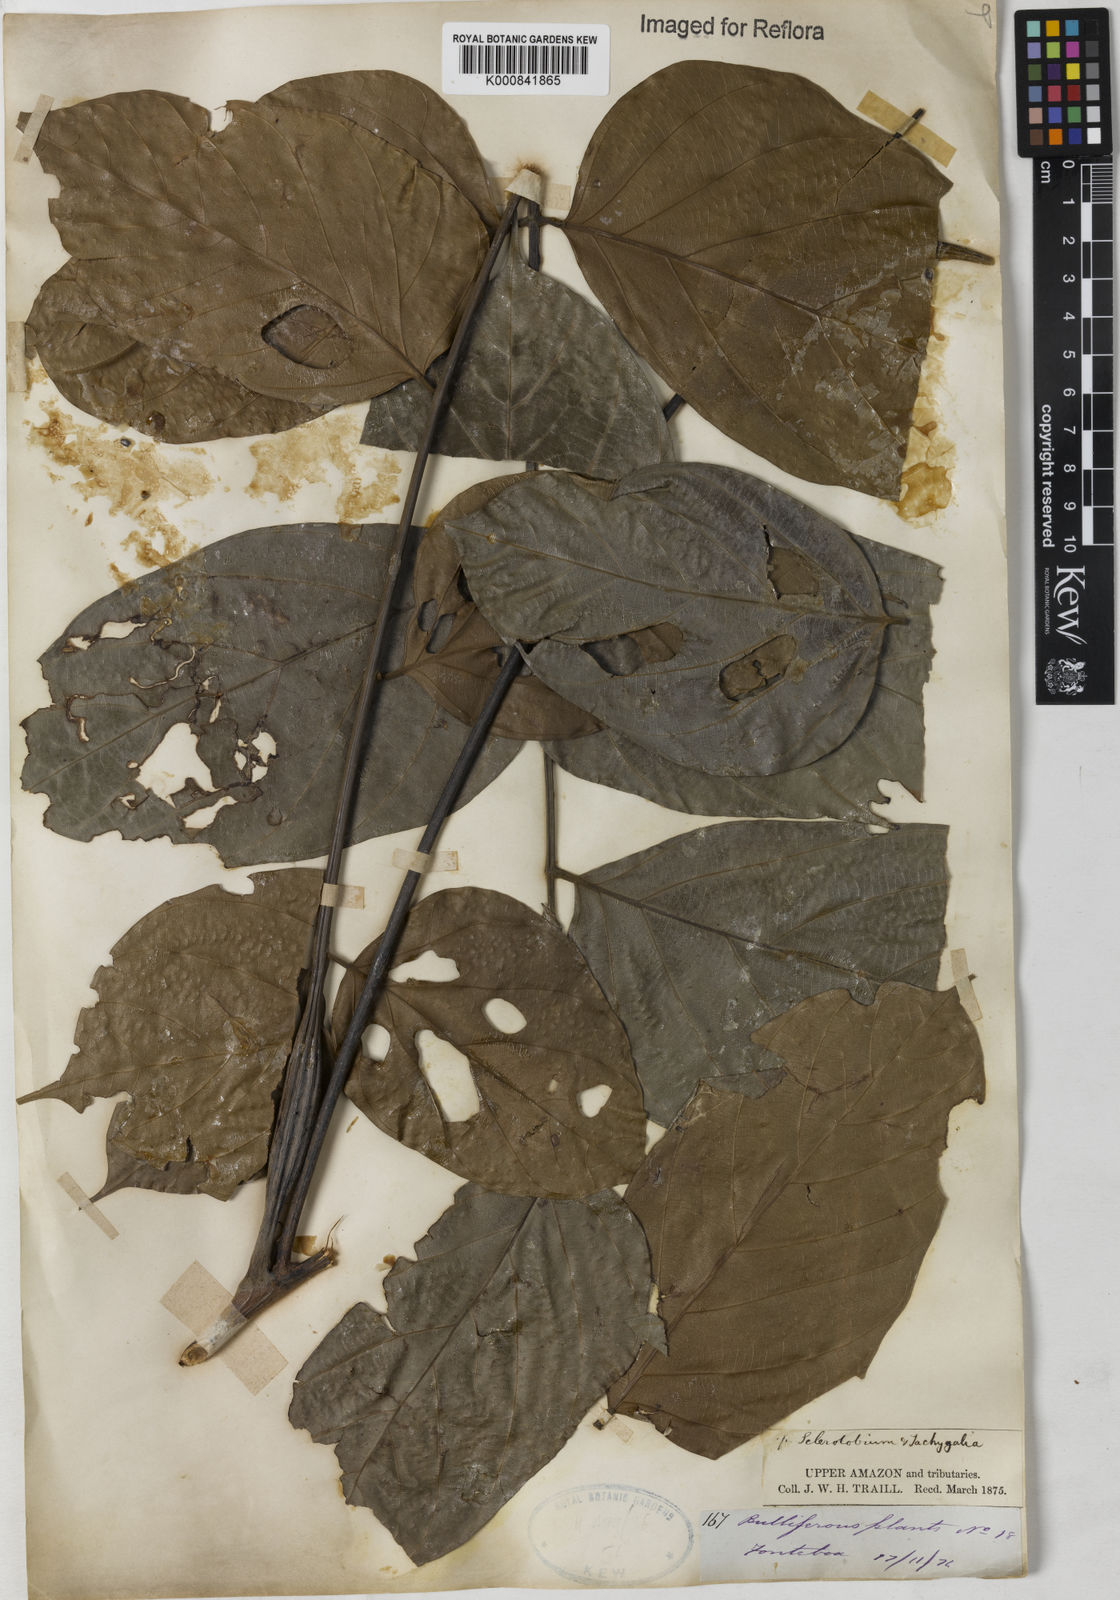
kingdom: Plantae
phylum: Tracheophyta
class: Magnoliopsida
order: Fabales
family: Fabaceae
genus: Tachigali
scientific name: Tachigali
